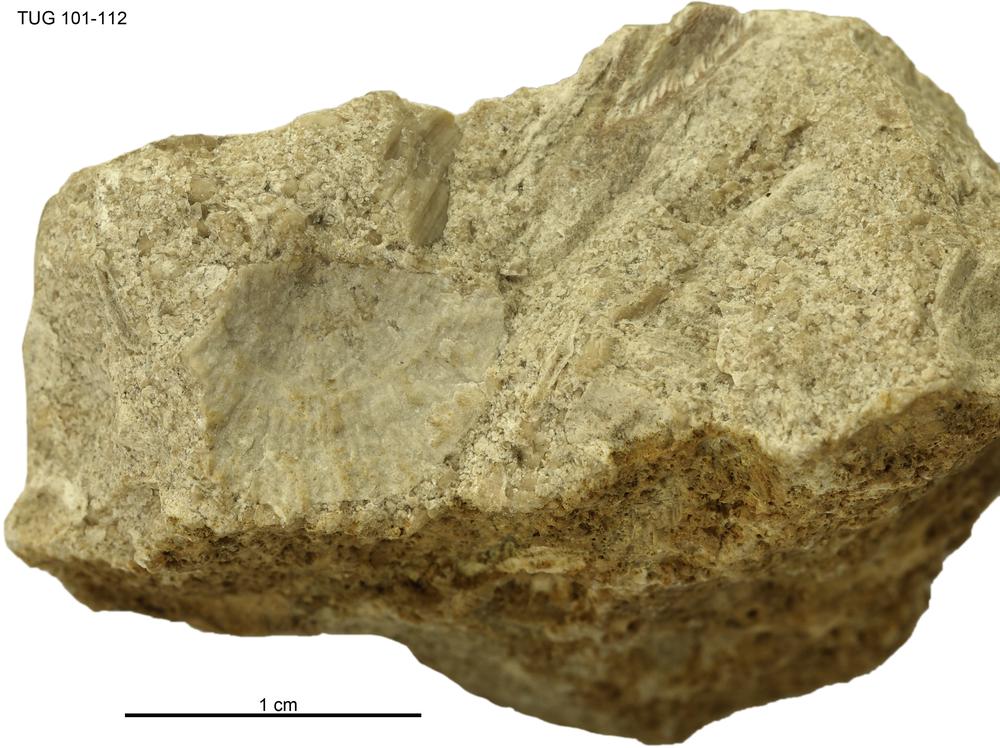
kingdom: Animalia
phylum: Brachiopoda
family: Strophomenidae
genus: Holtedahlina
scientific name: Holtedahlina
